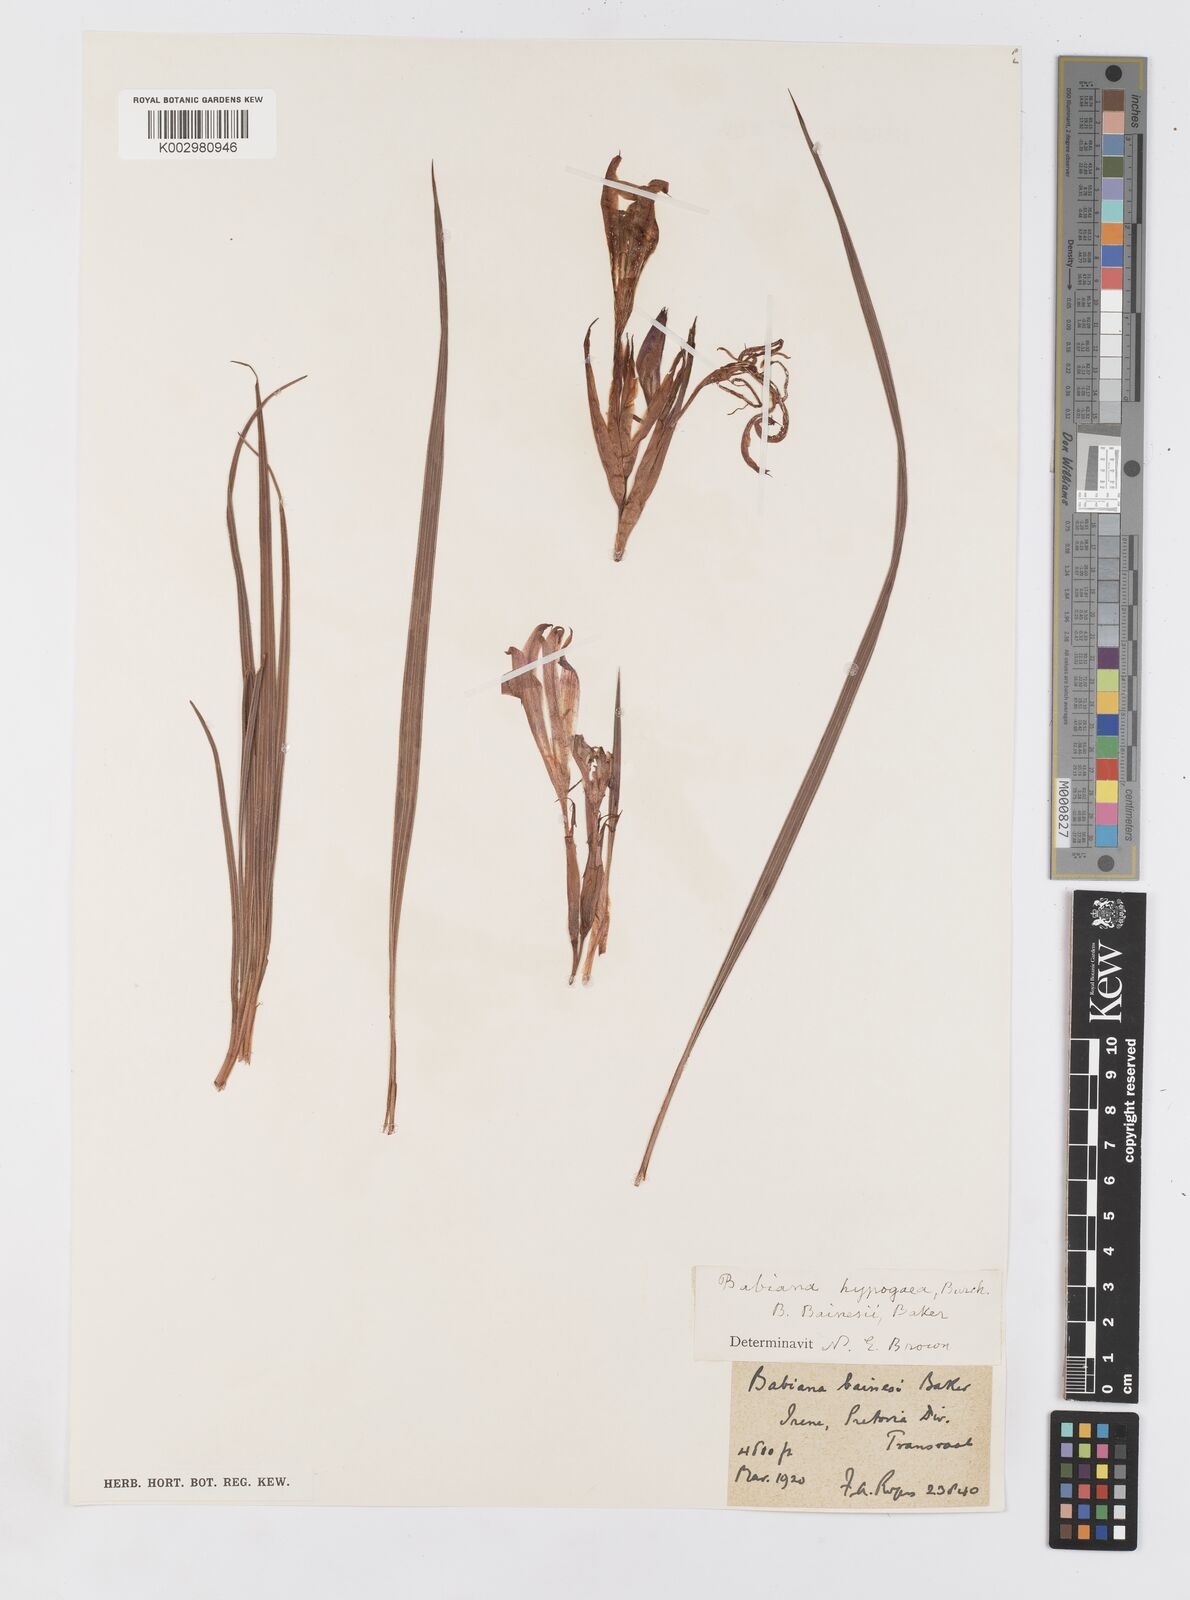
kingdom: Plantae
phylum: Tracheophyta
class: Liliopsida
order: Asparagales
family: Iridaceae
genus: Babiana
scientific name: Babiana bainesii
